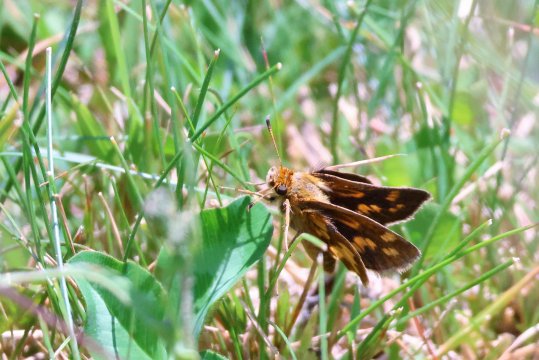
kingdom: Animalia
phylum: Arthropoda
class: Insecta
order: Lepidoptera
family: Hesperiidae
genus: Polites
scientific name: Polites coras
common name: Peck's Skipper
